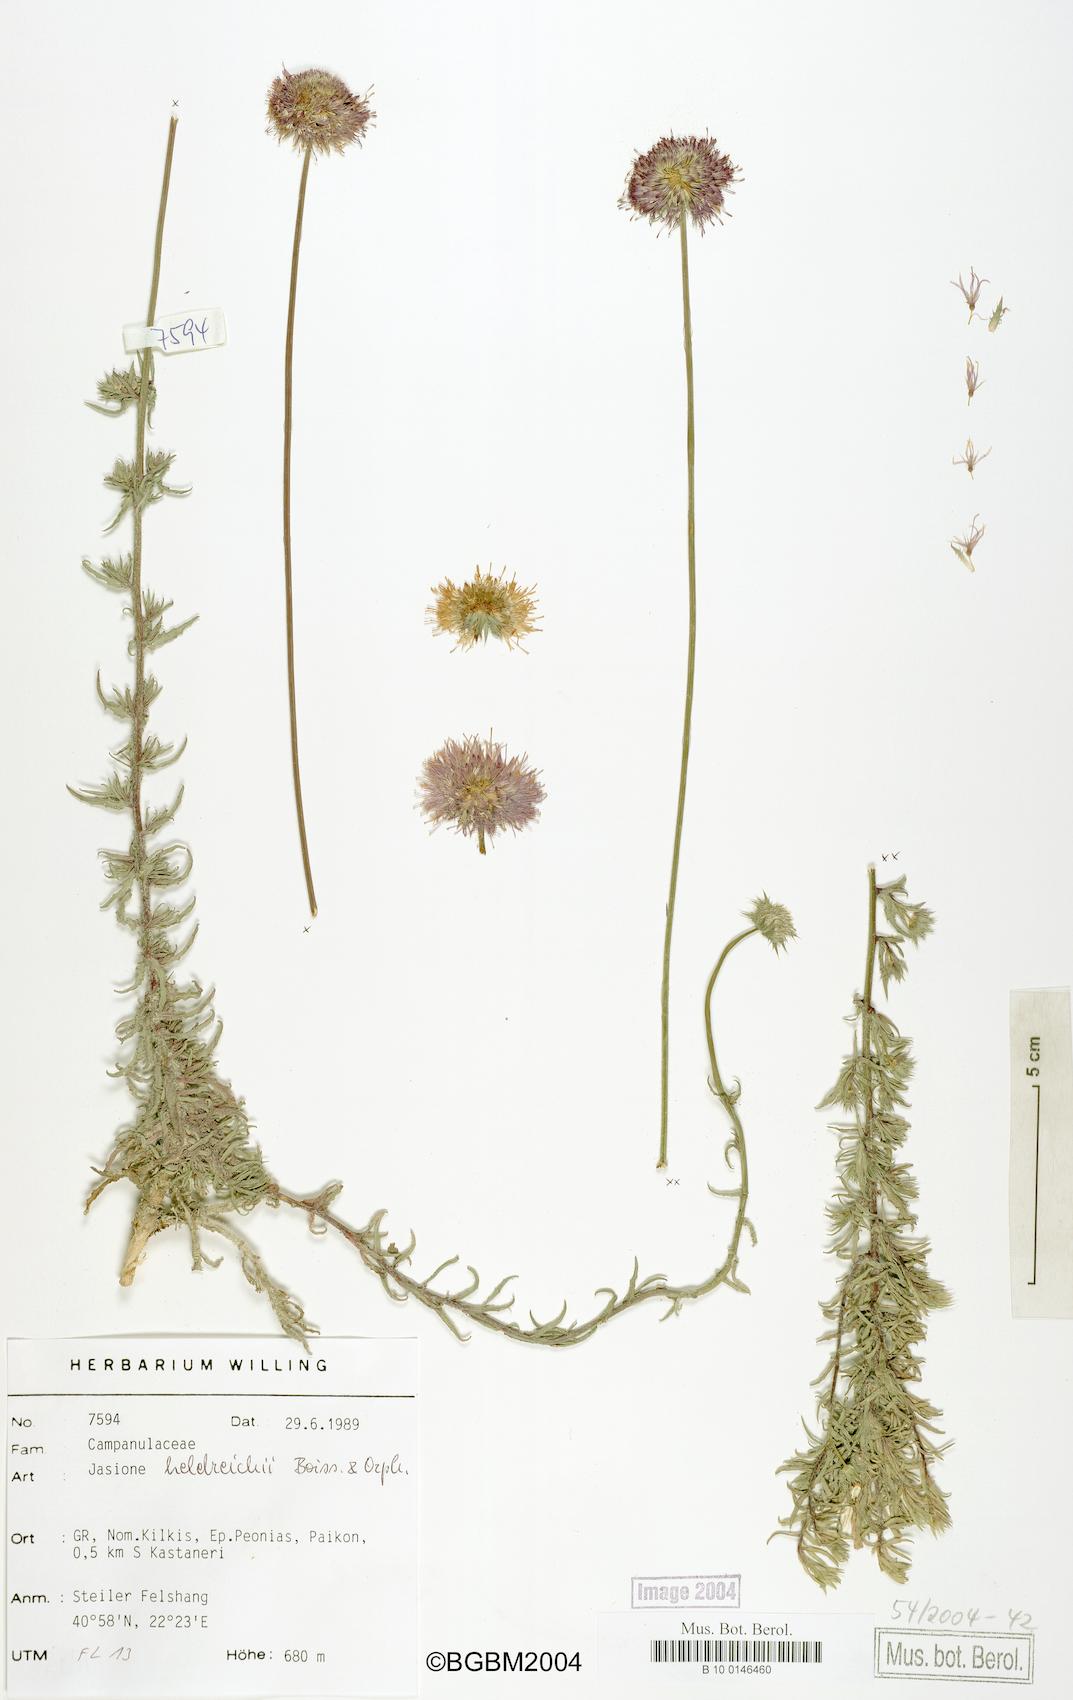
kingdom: Plantae
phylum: Tracheophyta
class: Magnoliopsida
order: Asterales
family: Campanulaceae
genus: Jasione
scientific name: Jasione heldreichii
